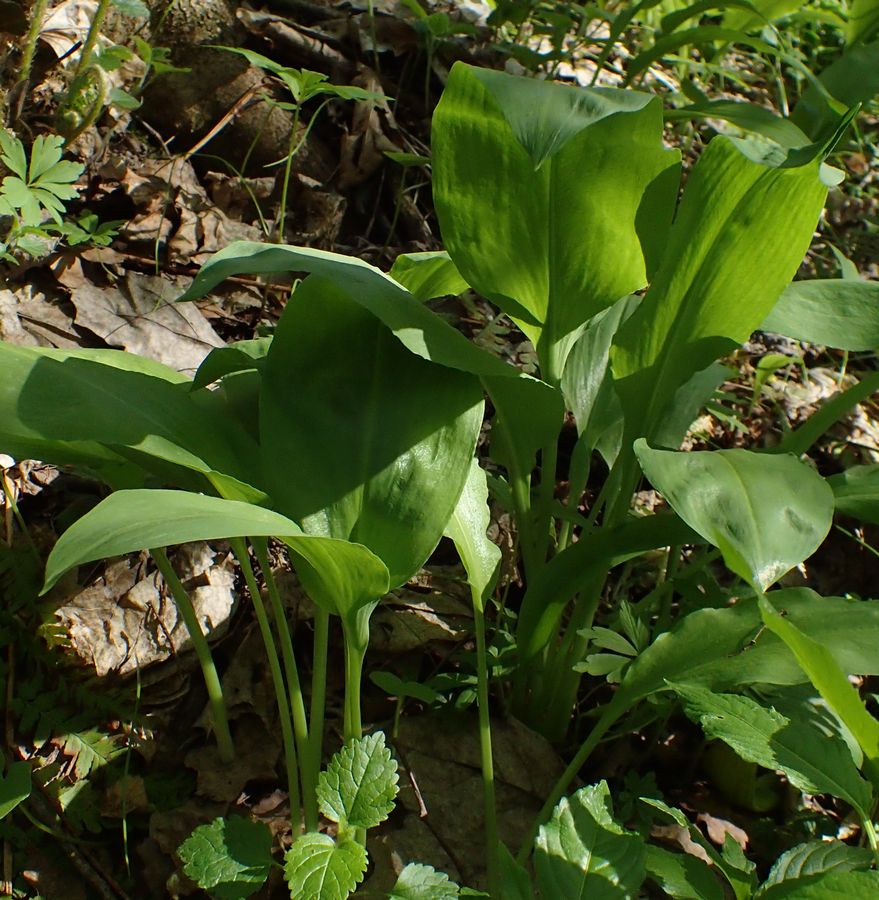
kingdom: Plantae
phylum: Tracheophyta
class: Liliopsida
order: Asparagales
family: Amaryllidaceae
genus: Allium
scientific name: Allium microdictyon
